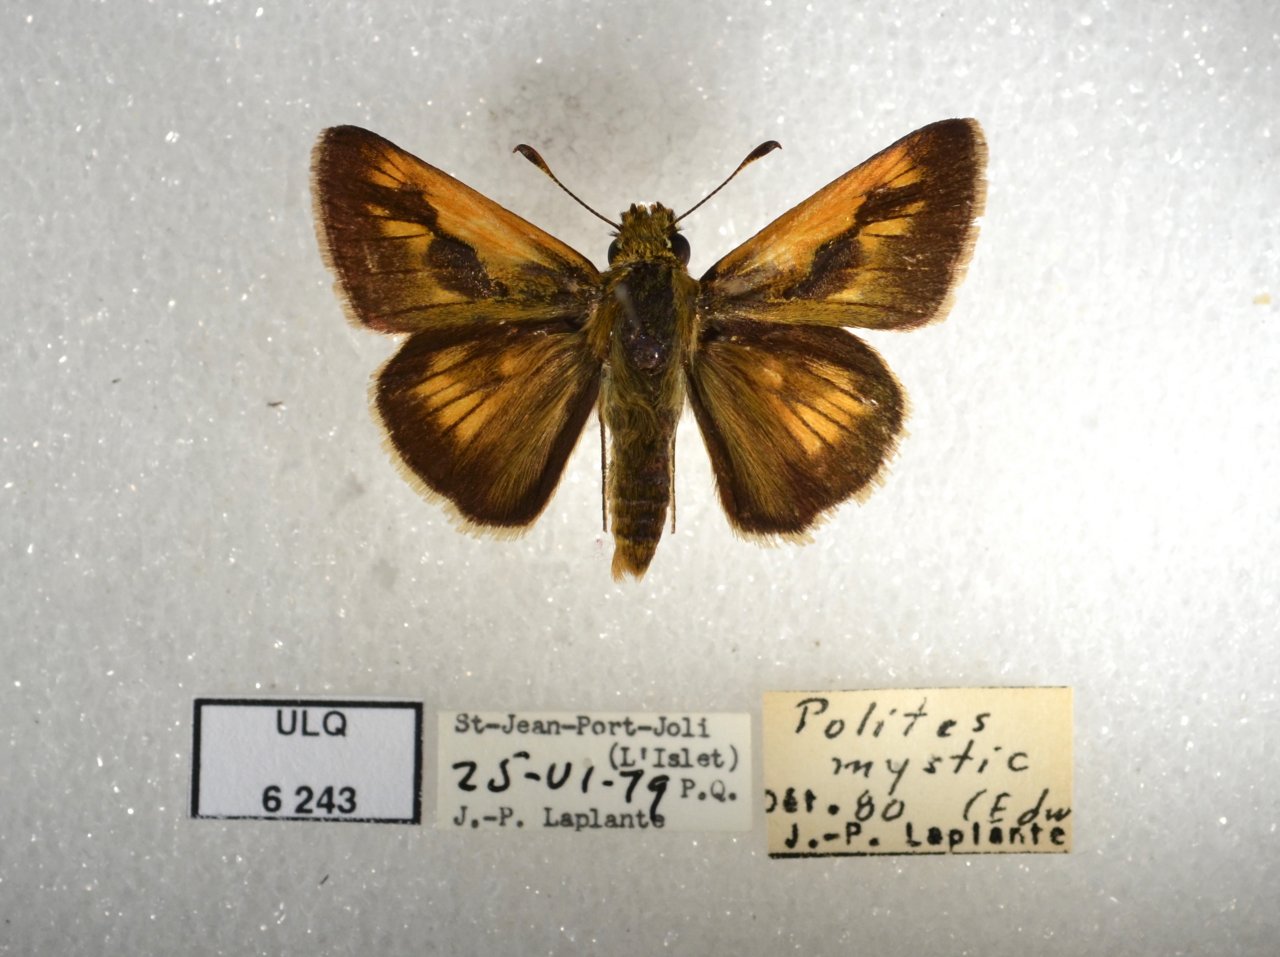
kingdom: Animalia
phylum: Arthropoda
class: Insecta
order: Lepidoptera
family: Hesperiidae
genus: Polites
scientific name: Polites
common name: Long Dash Skipper
